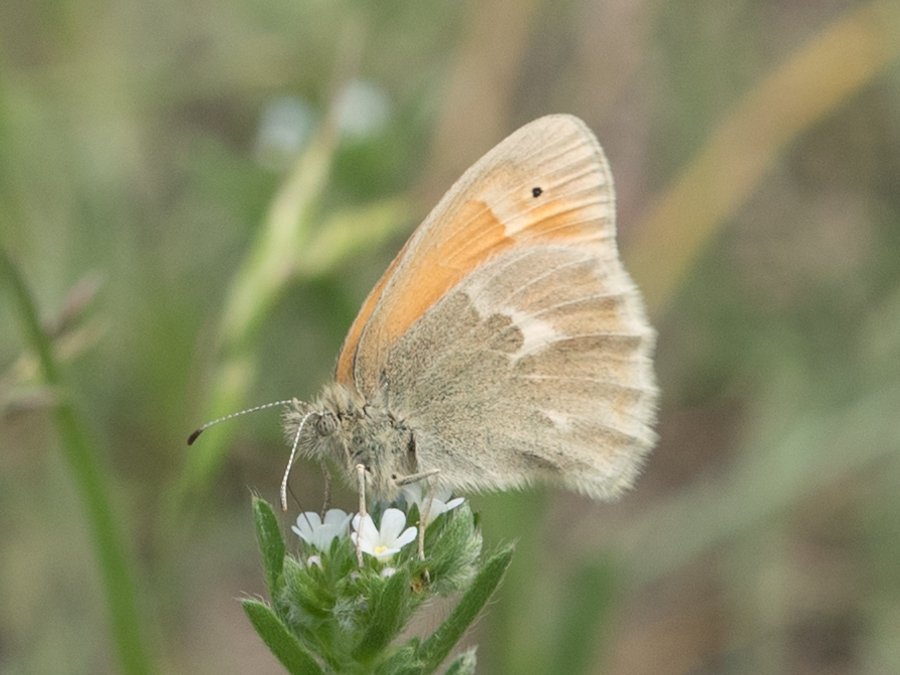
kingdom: Animalia
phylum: Arthropoda
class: Insecta
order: Lepidoptera
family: Nymphalidae
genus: Coenonympha
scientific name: Coenonympha tullia
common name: Large Heath
